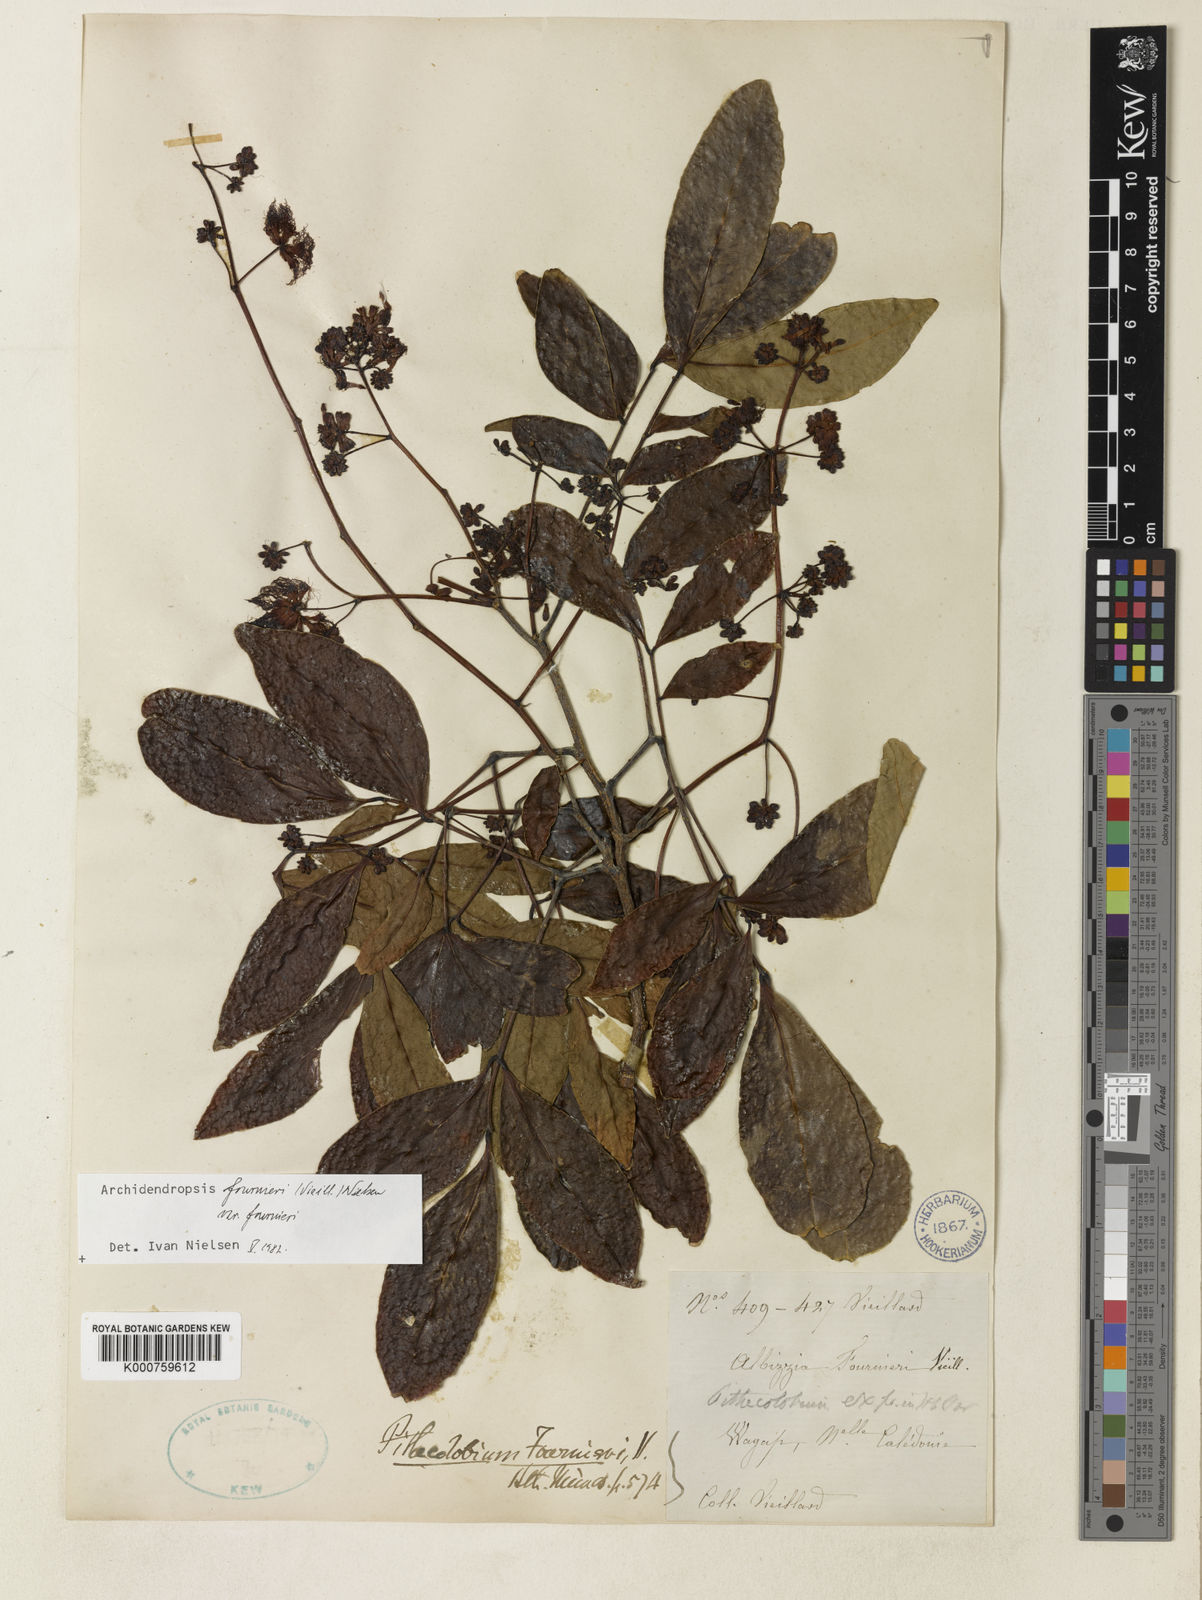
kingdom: Plantae
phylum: Tracheophyta
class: Magnoliopsida
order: Fabales
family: Fabaceae
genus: Archidendropsis
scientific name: Archidendropsis fournieri
